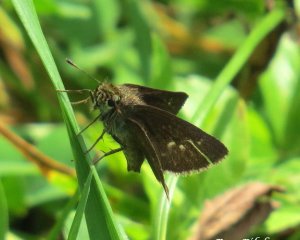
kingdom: Animalia
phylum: Arthropoda
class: Insecta
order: Lepidoptera
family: Hesperiidae
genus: Euphyes
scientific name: Euphyes vestris
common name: Dun Skipper
